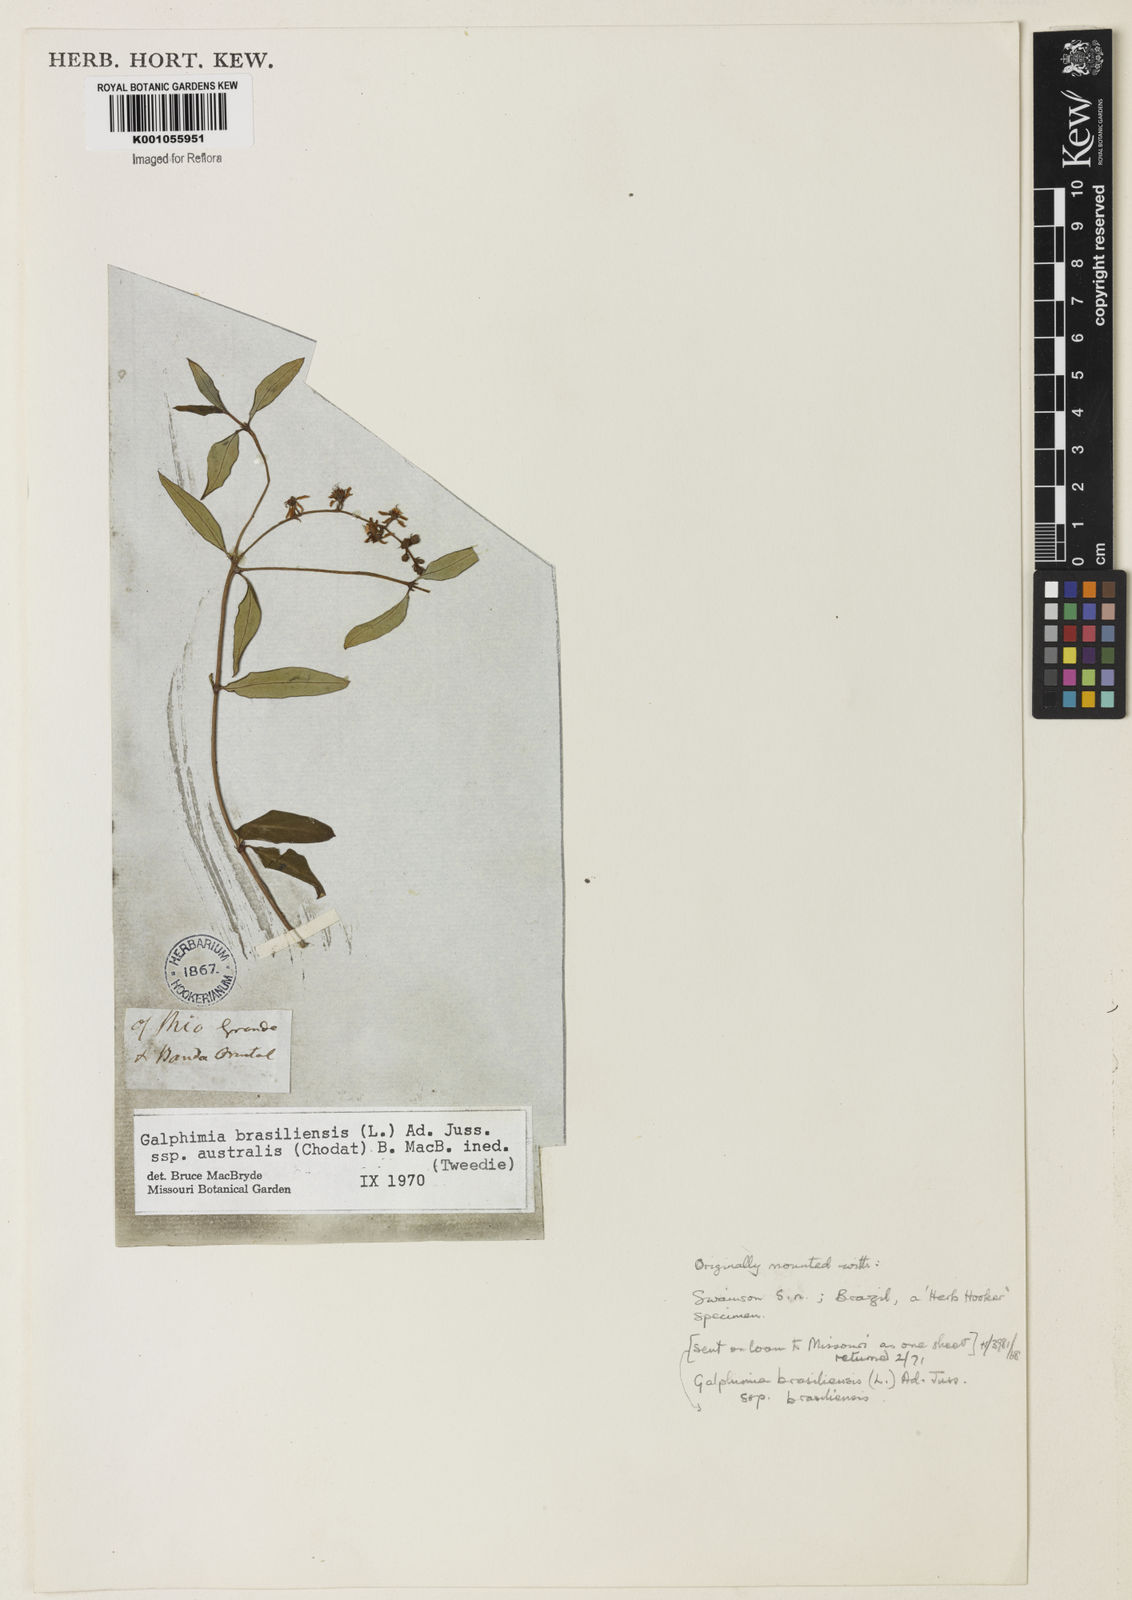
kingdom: Plantae
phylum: Tracheophyta
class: Magnoliopsida
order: Malpighiales
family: Malpighiaceae
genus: Galphimia
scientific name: Galphimia brasiliensis
